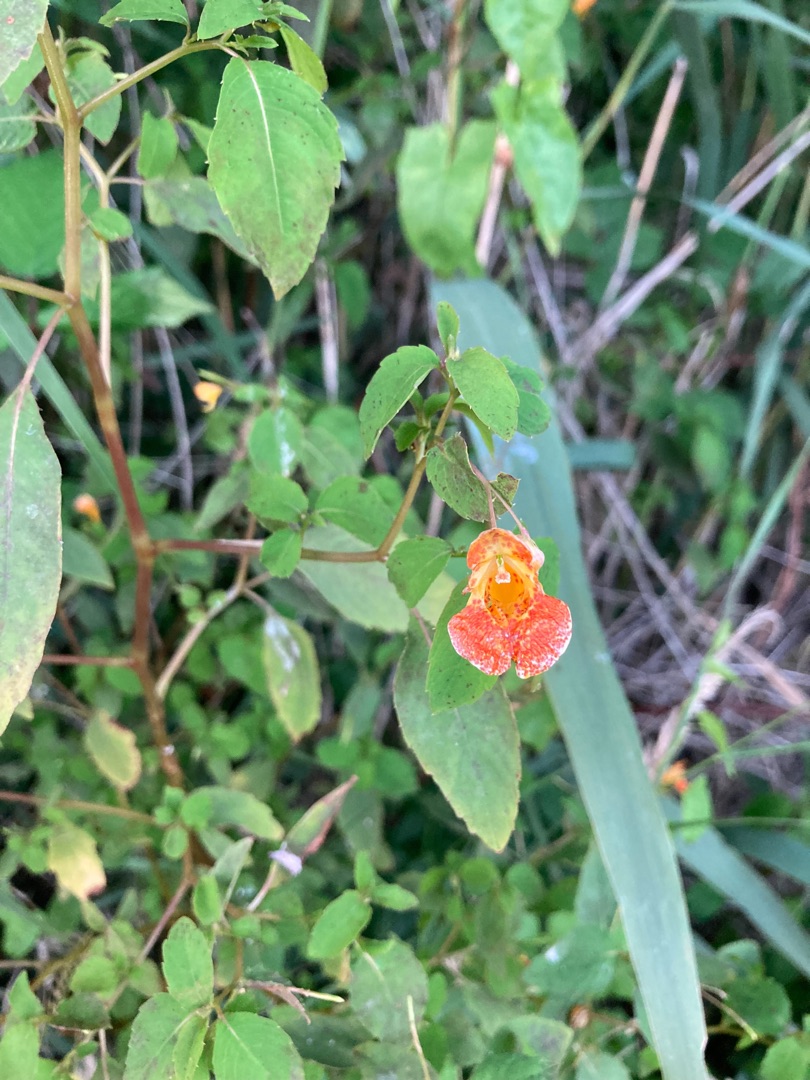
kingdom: Plantae
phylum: Tracheophyta
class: Magnoliopsida
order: Ericales
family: Balsaminaceae
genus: Impatiens
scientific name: Impatiens capensis
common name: Orange-balsamin
